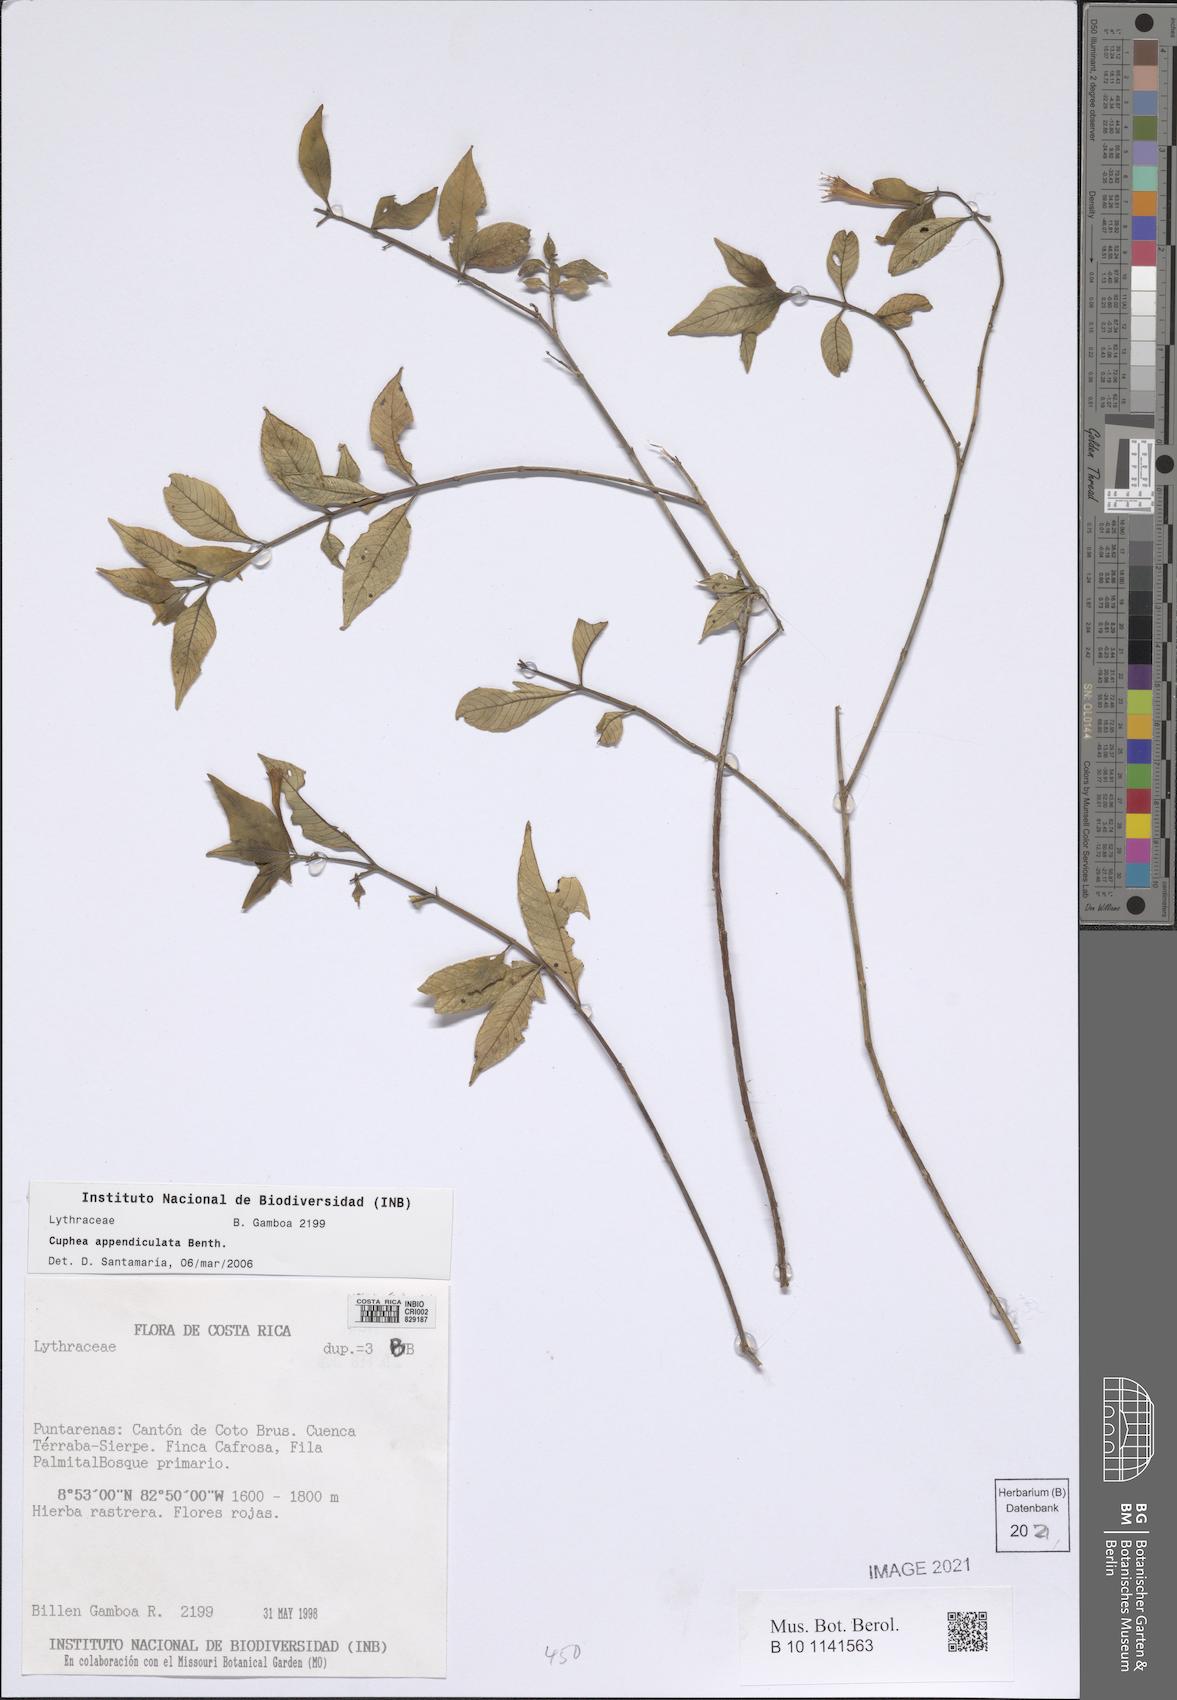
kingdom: Plantae
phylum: Tracheophyta
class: Magnoliopsida
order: Myrtales
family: Lythraceae
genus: Cuphea
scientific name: Cuphea appendiculata
